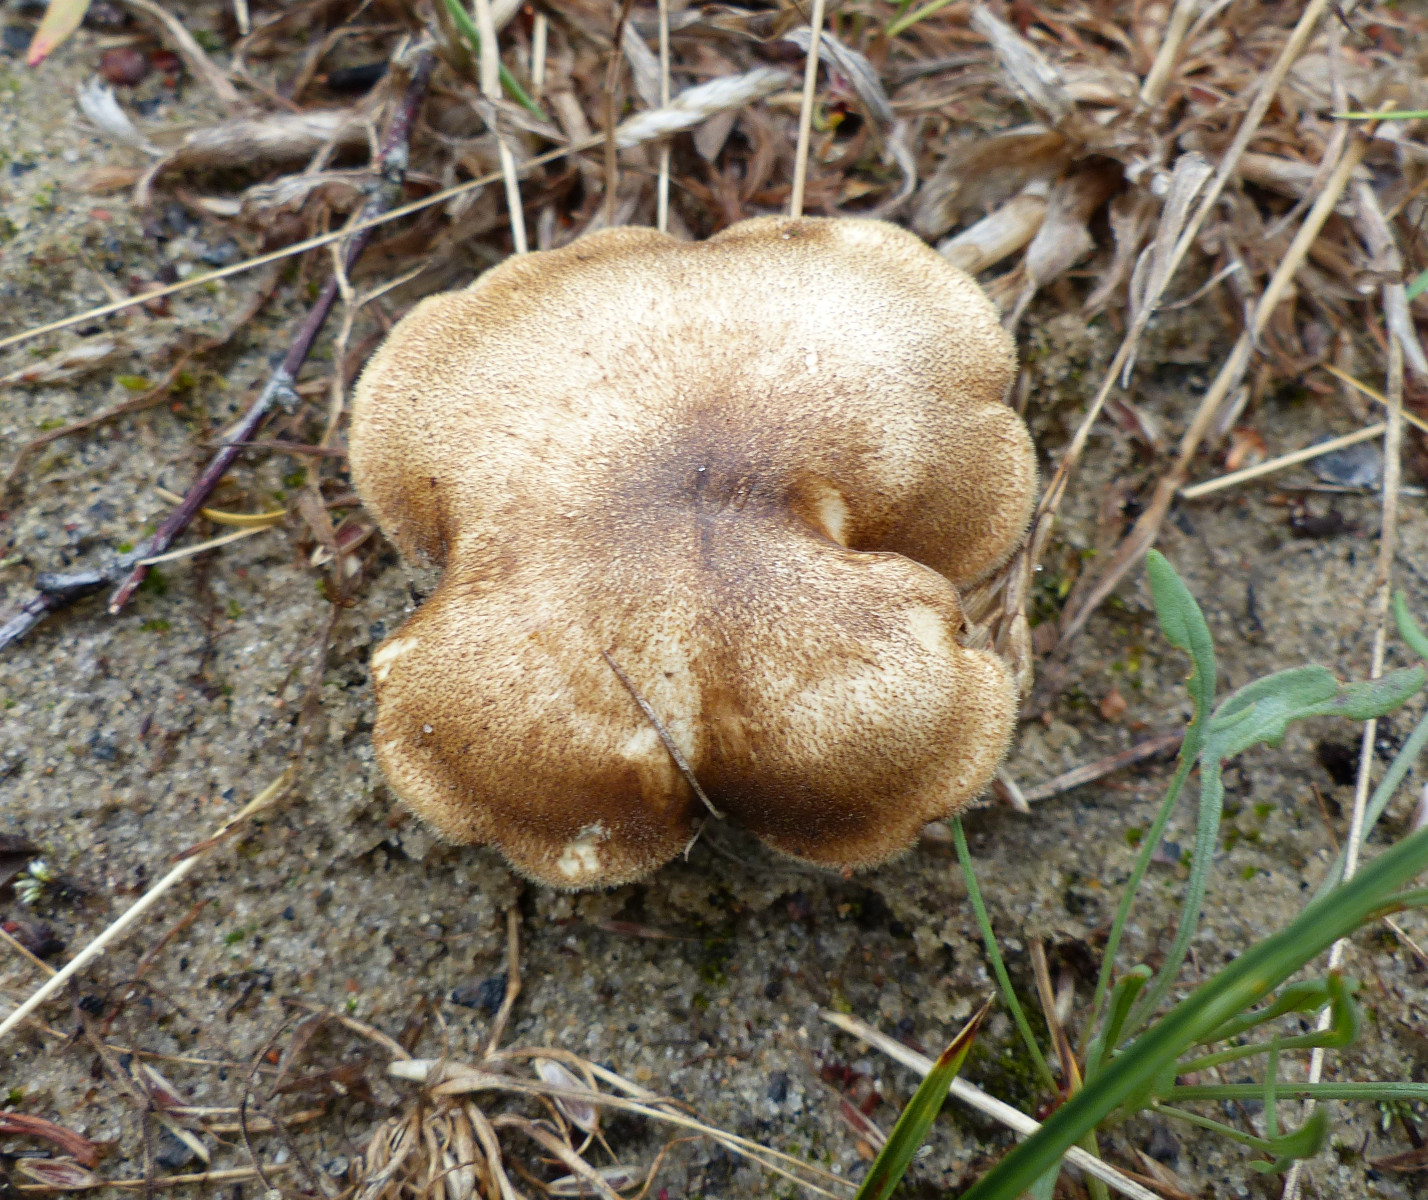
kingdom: Fungi
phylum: Basidiomycota
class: Agaricomycetes
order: Polyporales
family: Polyporaceae
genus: Lentinus
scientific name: Lentinus substrictus
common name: forårs-stilkporesvamp
